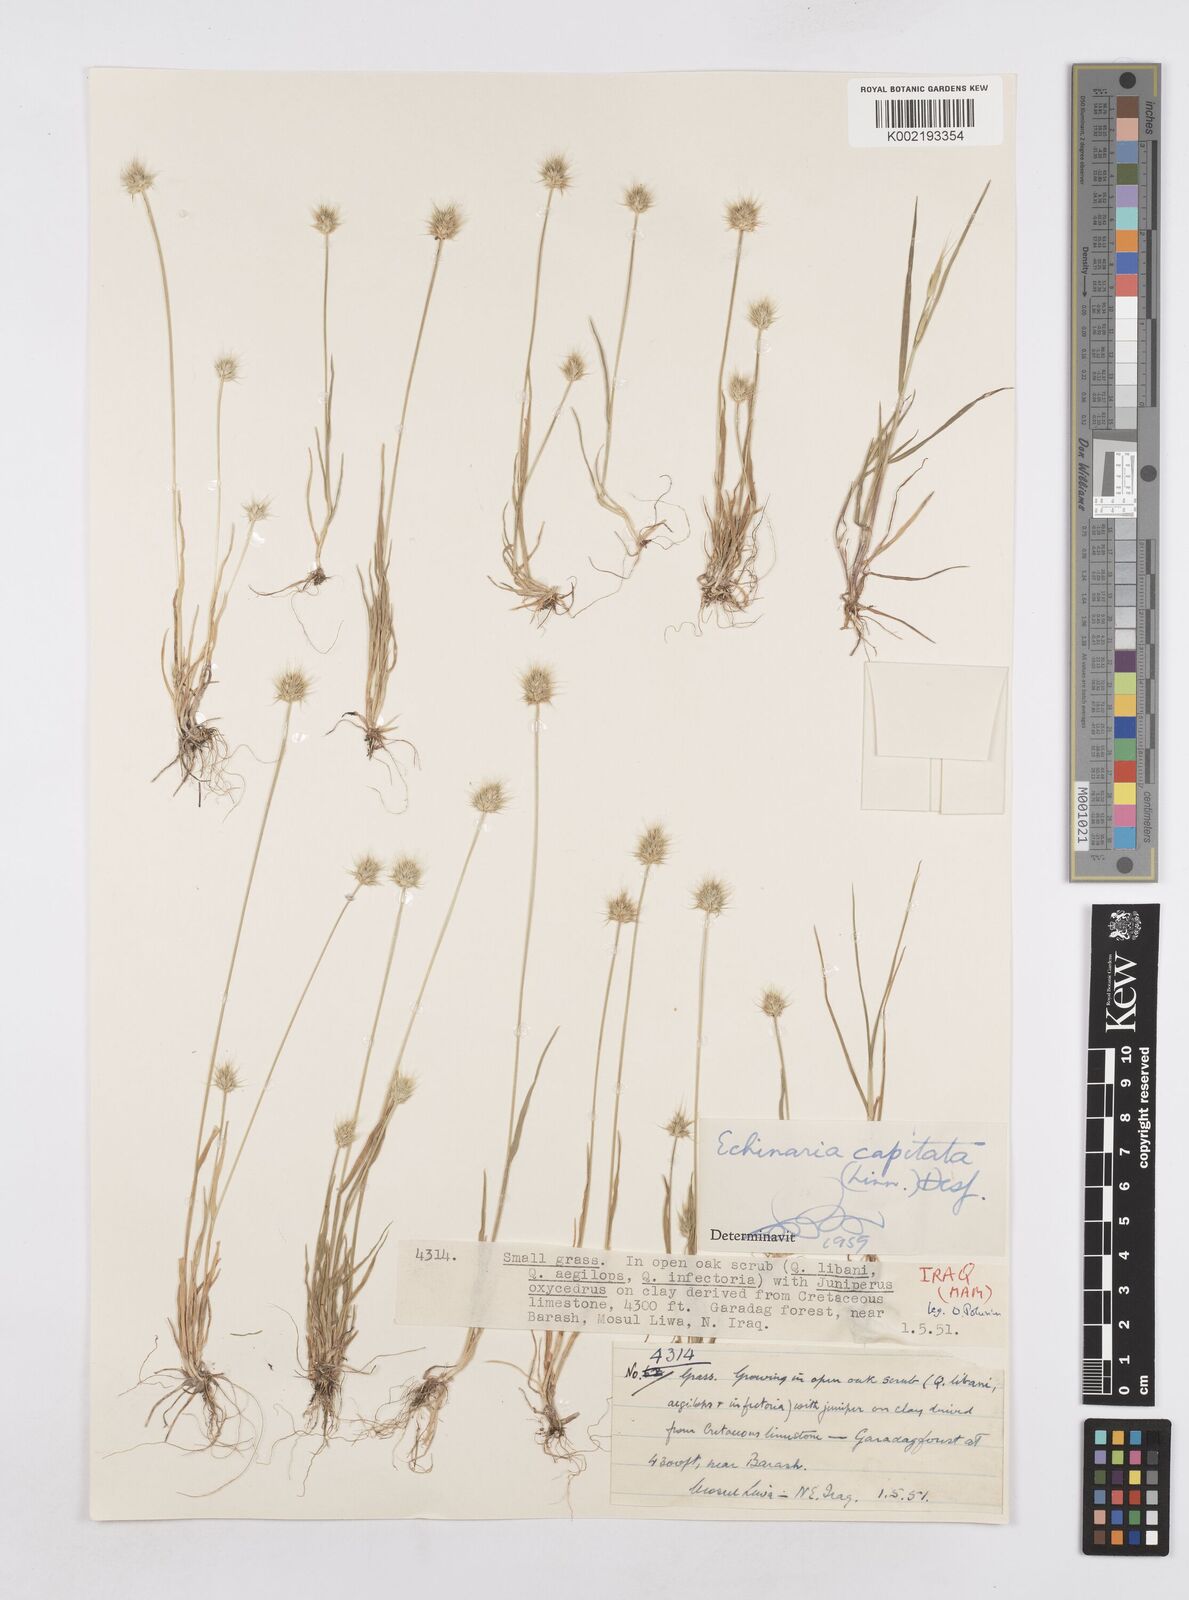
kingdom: Plantae
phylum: Tracheophyta
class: Liliopsida
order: Poales
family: Poaceae
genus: Echinaria
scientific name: Echinaria capitata
